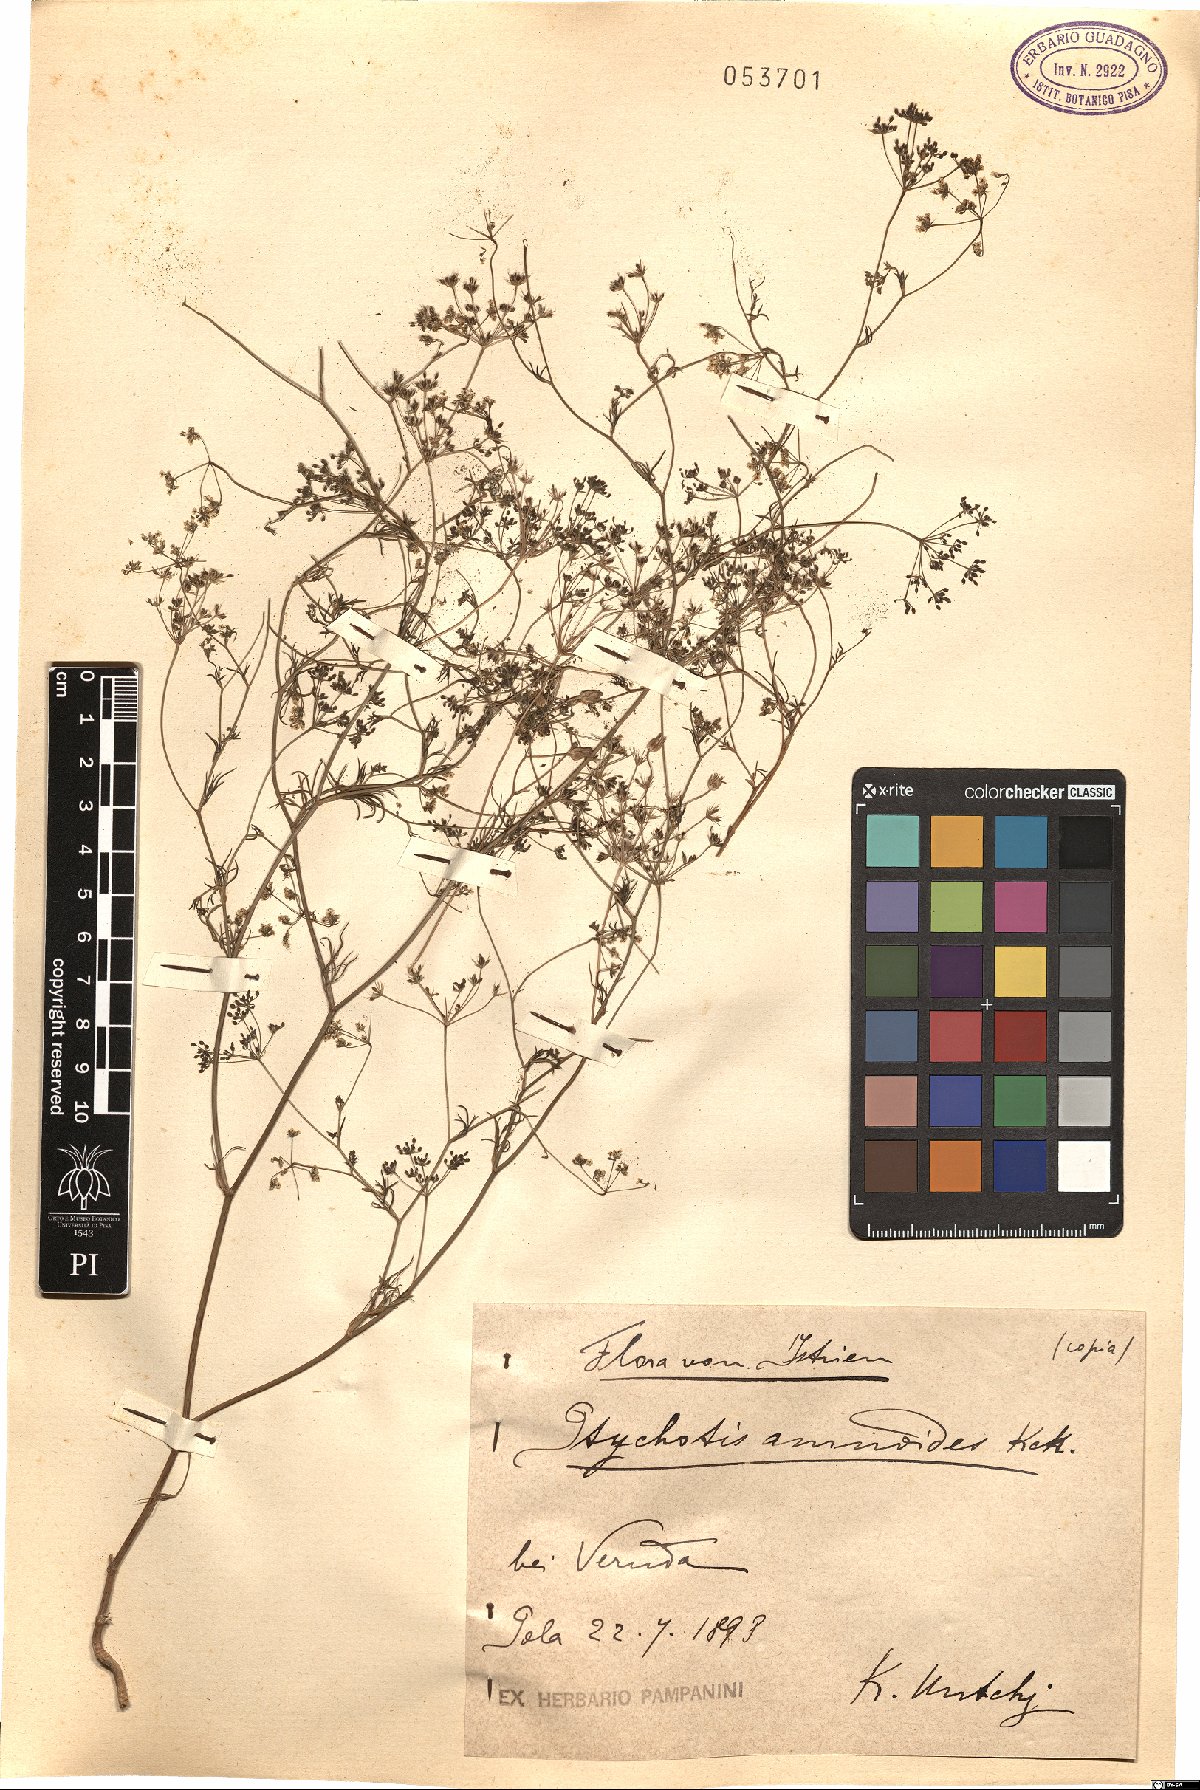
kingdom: Plantae
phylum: Tracheophyta
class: Magnoliopsida
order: Apiales
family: Apiaceae
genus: Ammoides
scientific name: Ammoides pusilla
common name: Cerfolium
